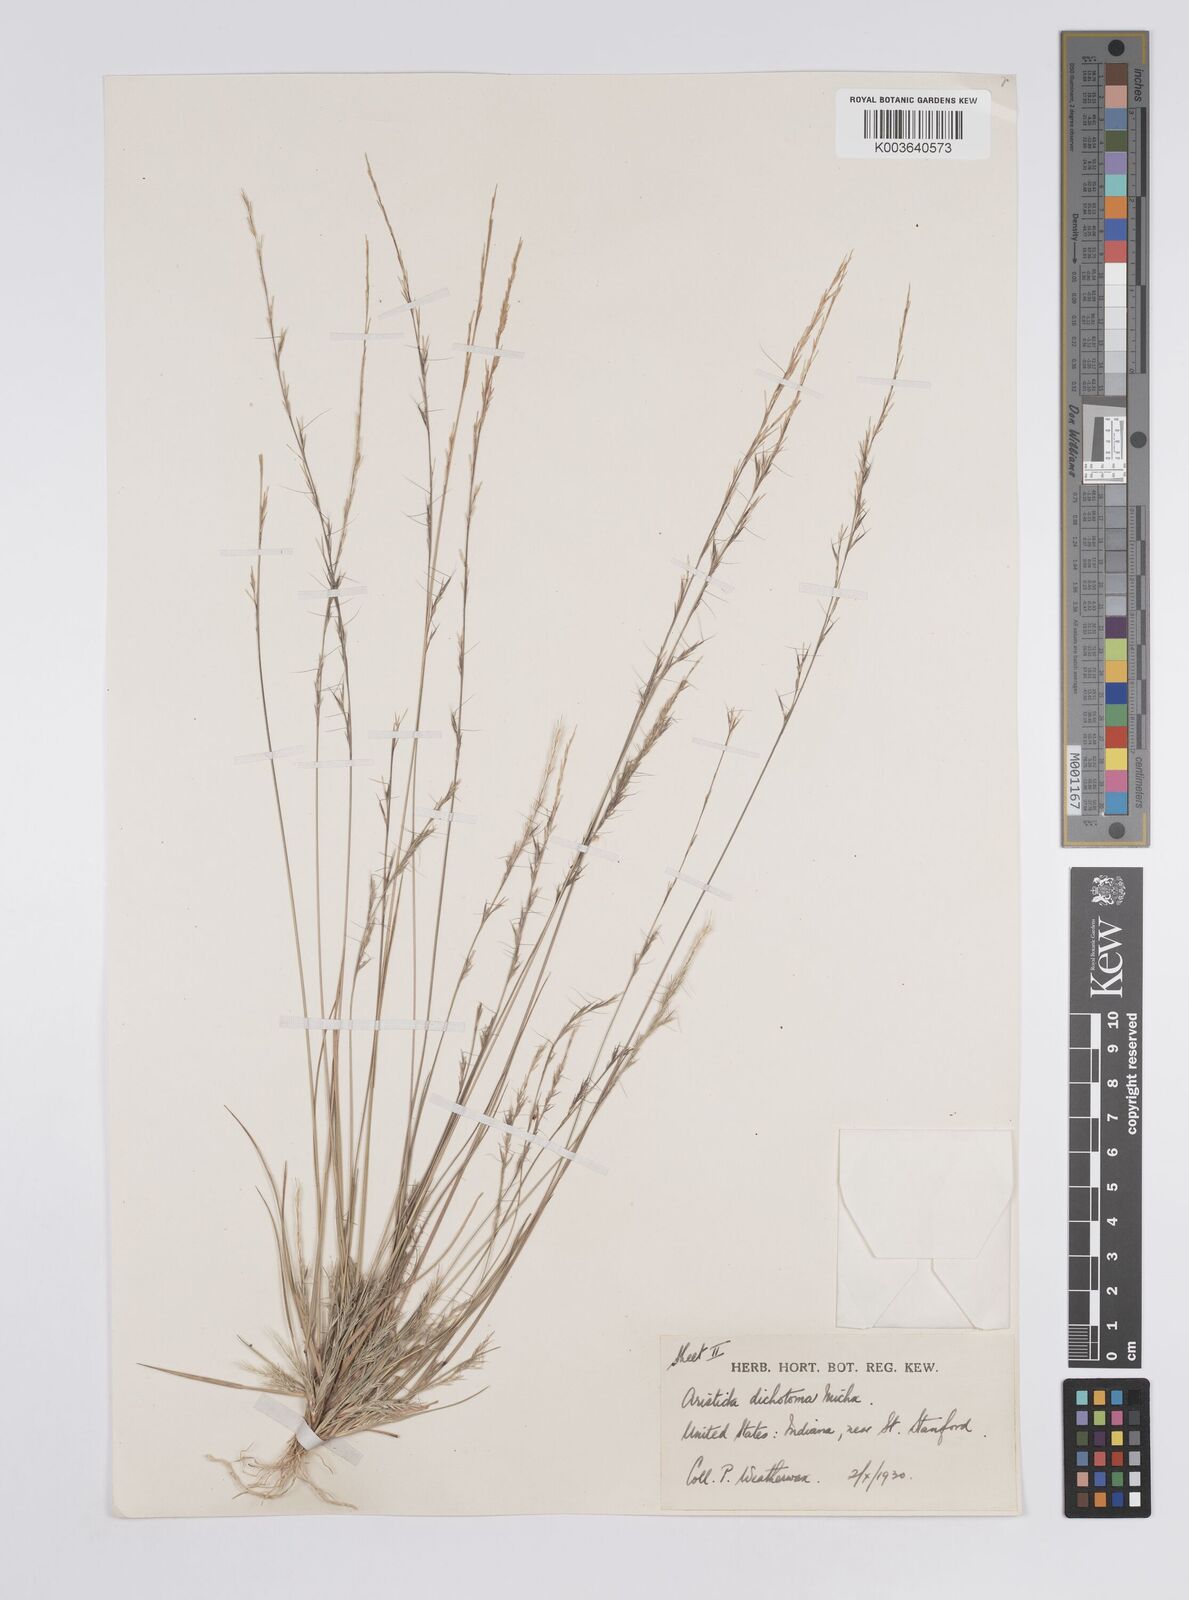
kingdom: Plantae
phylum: Tracheophyta
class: Liliopsida
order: Poales
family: Poaceae
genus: Aristida
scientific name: Aristida dichotoma
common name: Churchmouse three-awn
